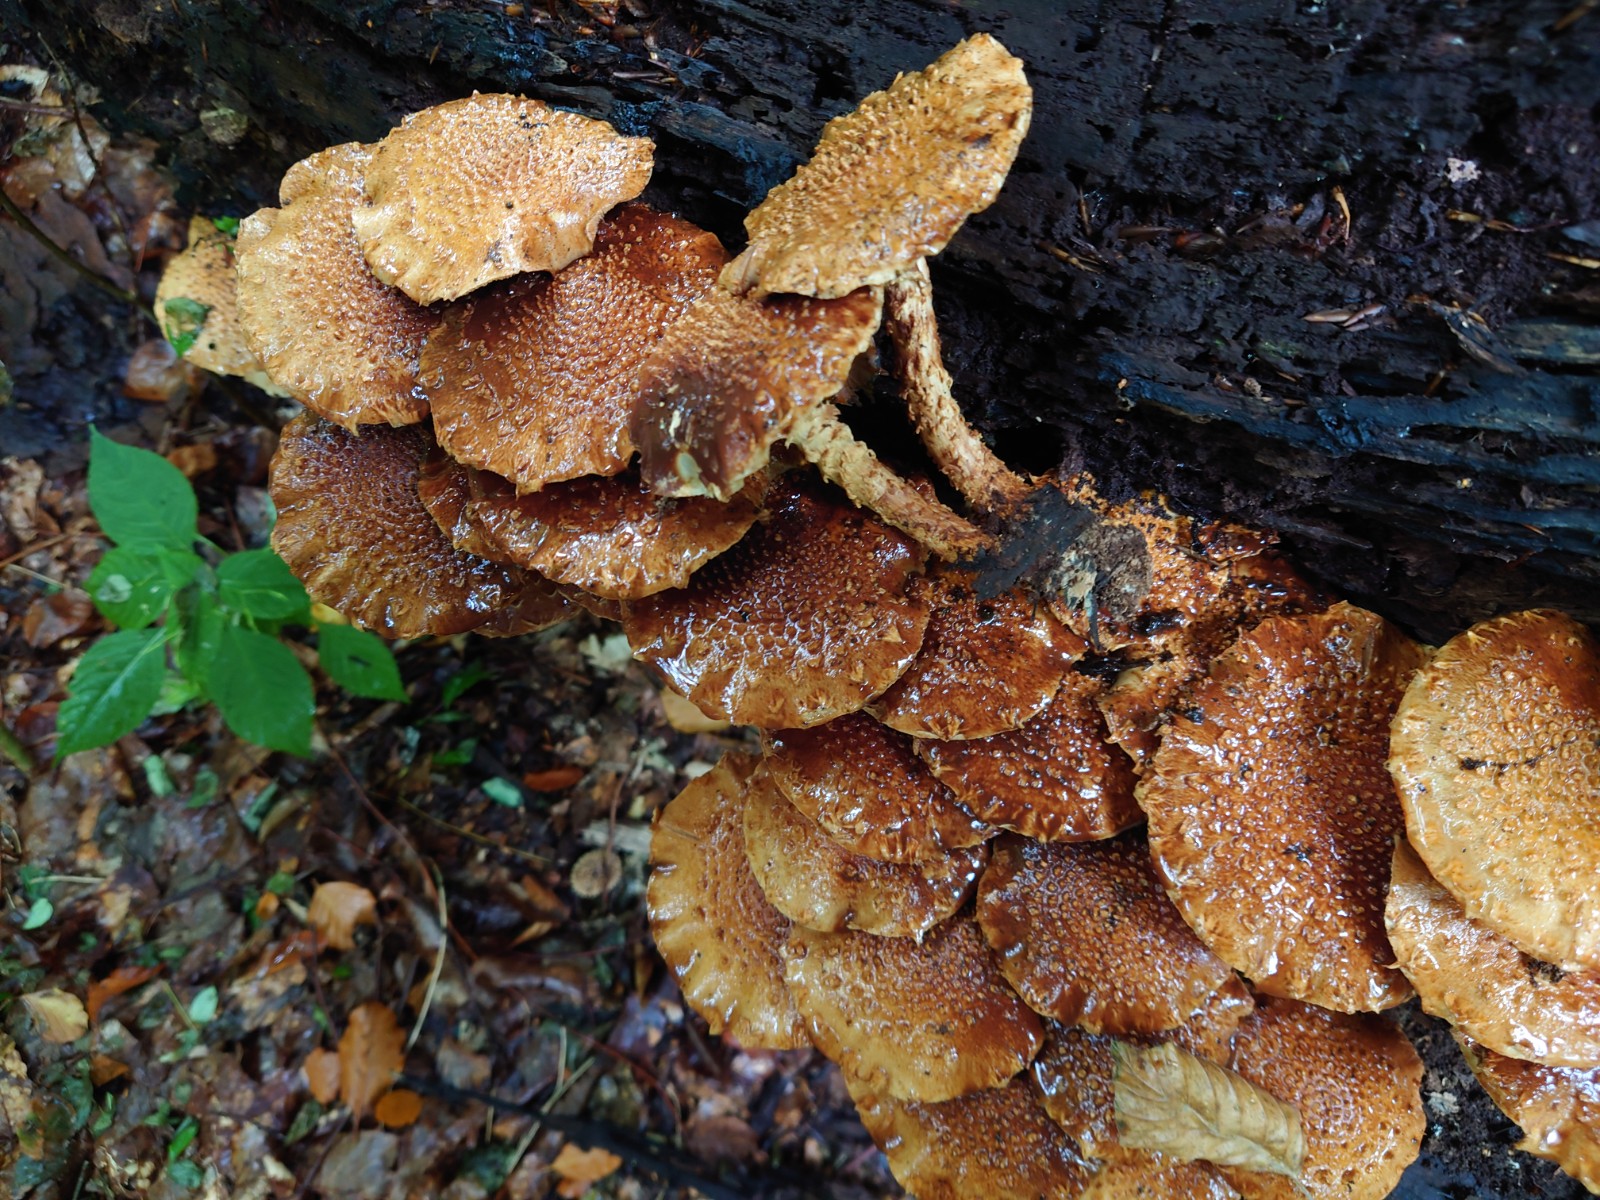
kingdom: Fungi
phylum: Basidiomycota
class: Agaricomycetes
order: Agaricales
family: Strophariaceae
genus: Pholiota
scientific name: Pholiota squarrosa
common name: krumskællet skælhat
